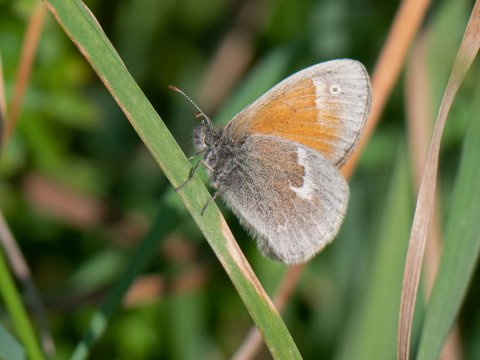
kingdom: Animalia
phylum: Arthropoda
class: Insecta
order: Lepidoptera
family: Nymphalidae
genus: Coenonympha
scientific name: Coenonympha tullia
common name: Large Heath
